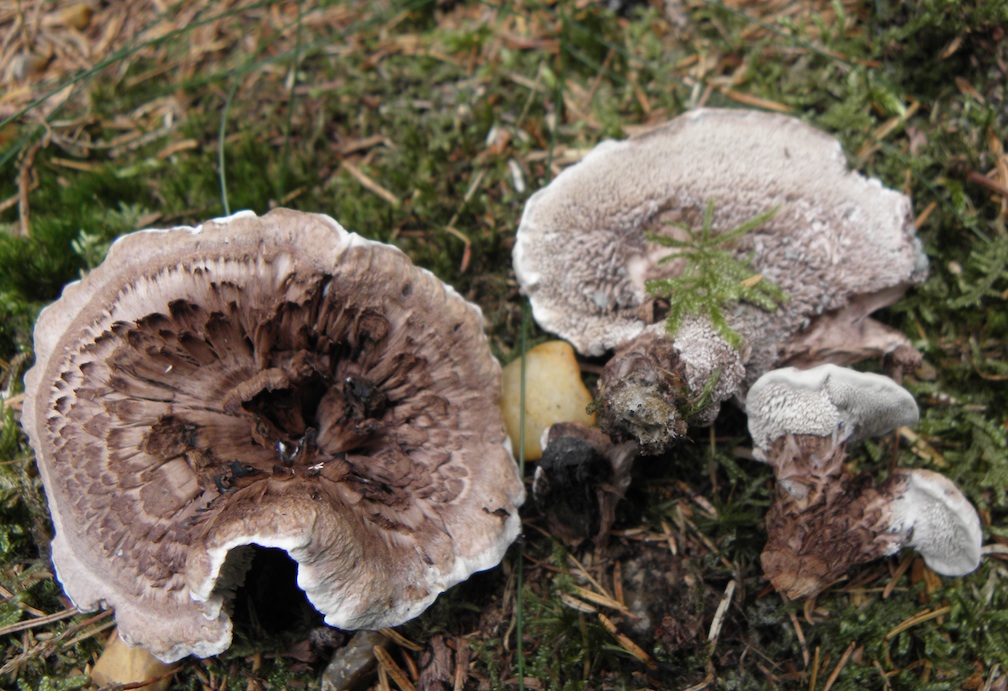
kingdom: Fungi
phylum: Basidiomycota
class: Agaricomycetes
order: Thelephorales
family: Thelephoraceae
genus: Phellodon
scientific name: Phellodon violascens
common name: violetbrun duftpigsvamp
